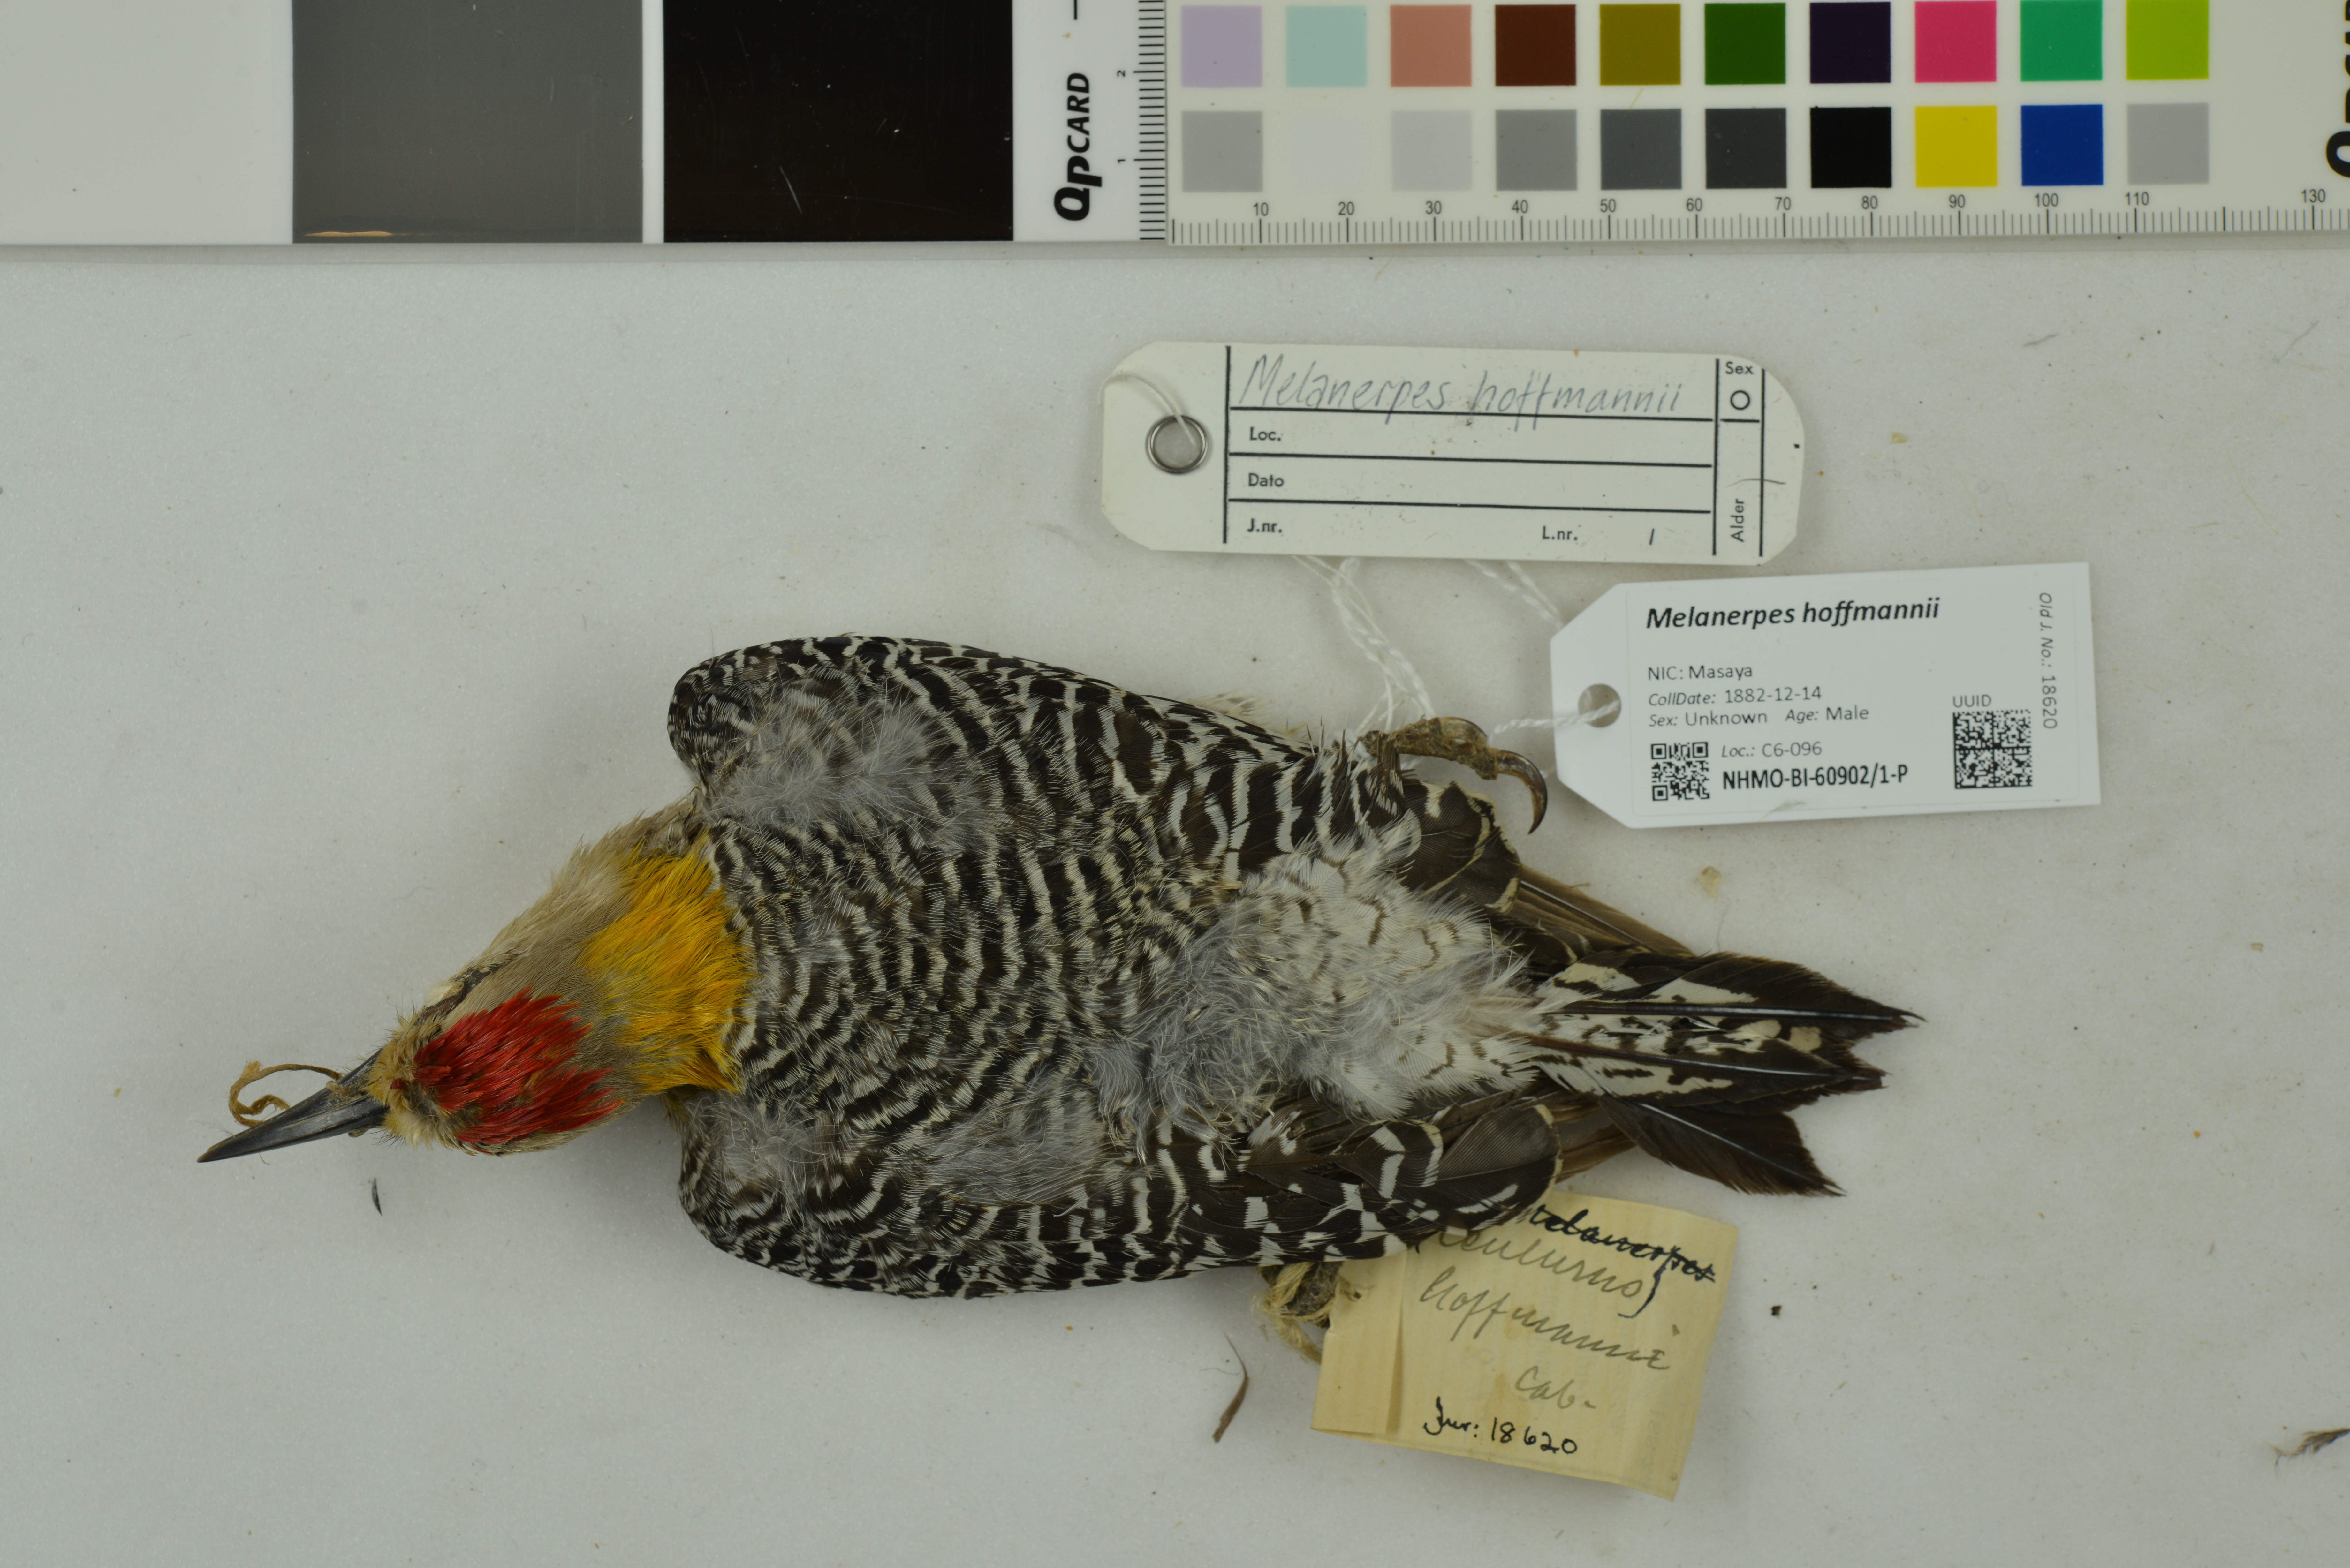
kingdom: Animalia
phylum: Chordata
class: Aves
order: Piciformes
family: Picidae
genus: Melanerpes
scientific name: Melanerpes hoffmannii
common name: Hoffmann's woodpecker
